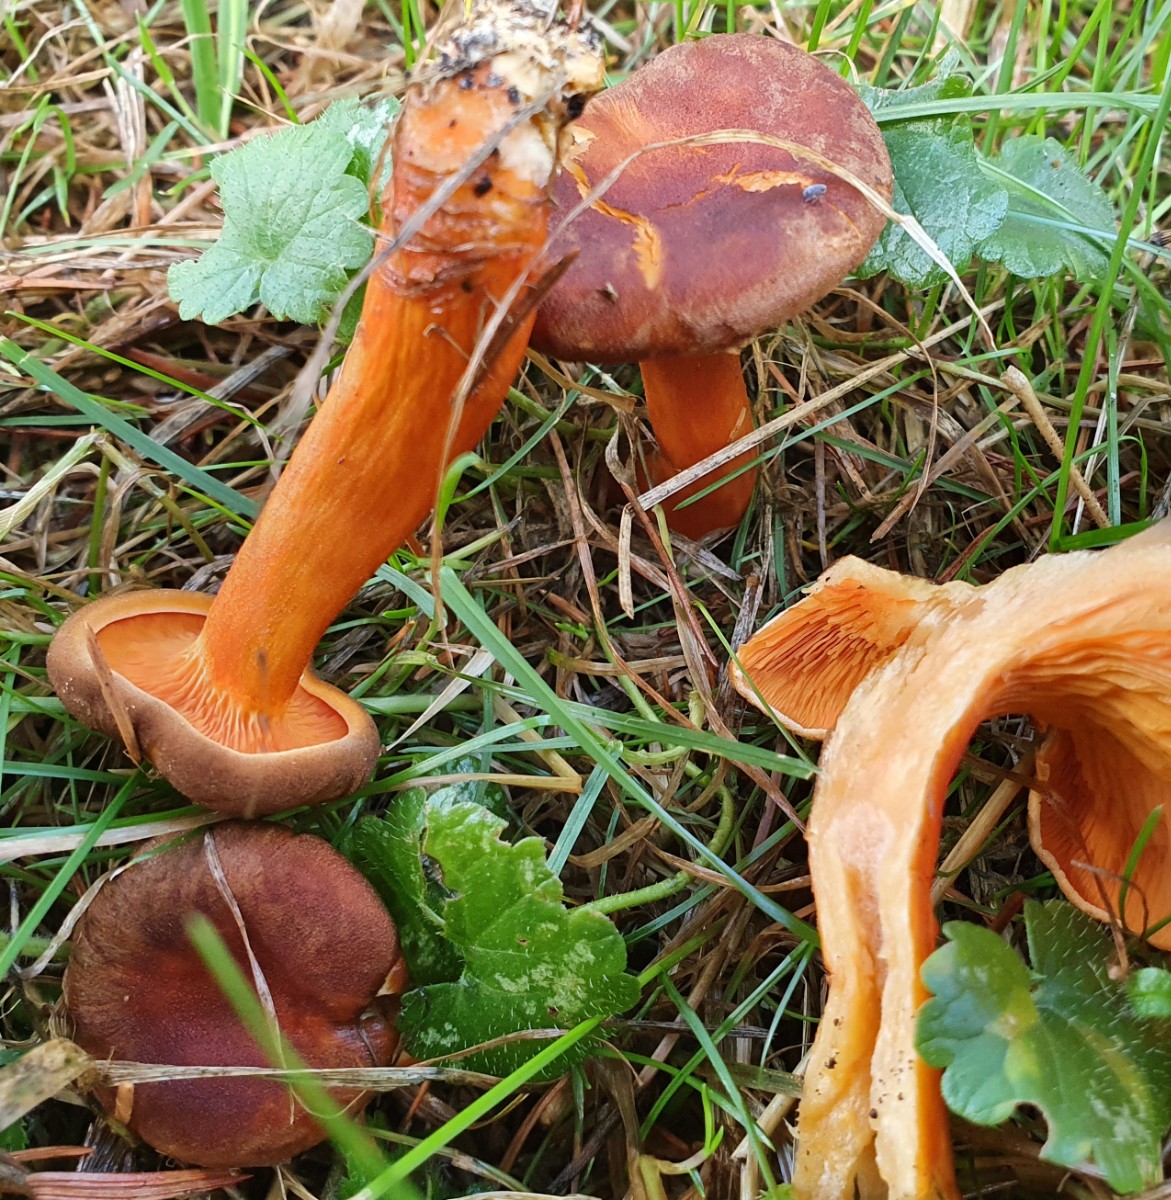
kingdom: Fungi
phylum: Basidiomycota
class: Agaricomycetes
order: Boletales
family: Hygrophoropsidaceae
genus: Hygrophoropsis
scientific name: Hygrophoropsis rufa
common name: brunfiltet orangekantarel
